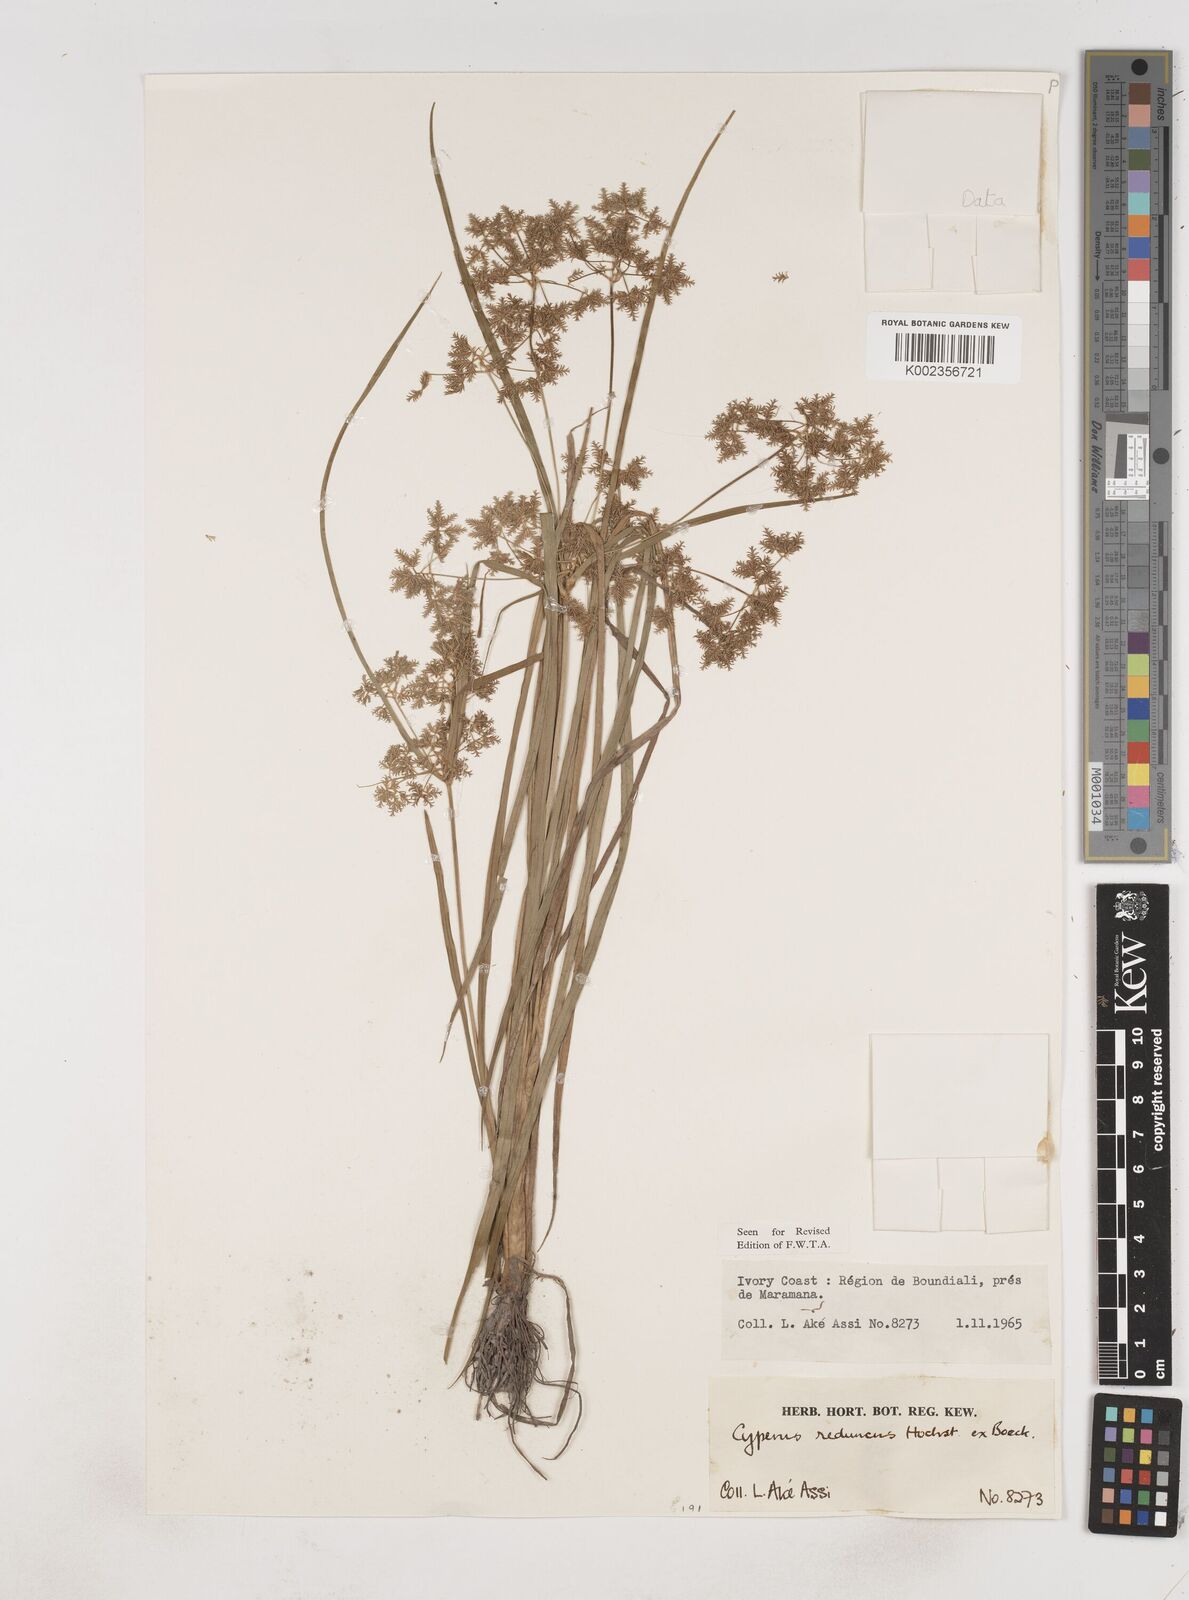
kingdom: Plantae
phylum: Tracheophyta
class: Liliopsida
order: Poales
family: Cyperaceae
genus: Cyperus
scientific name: Cyperus reduncus
